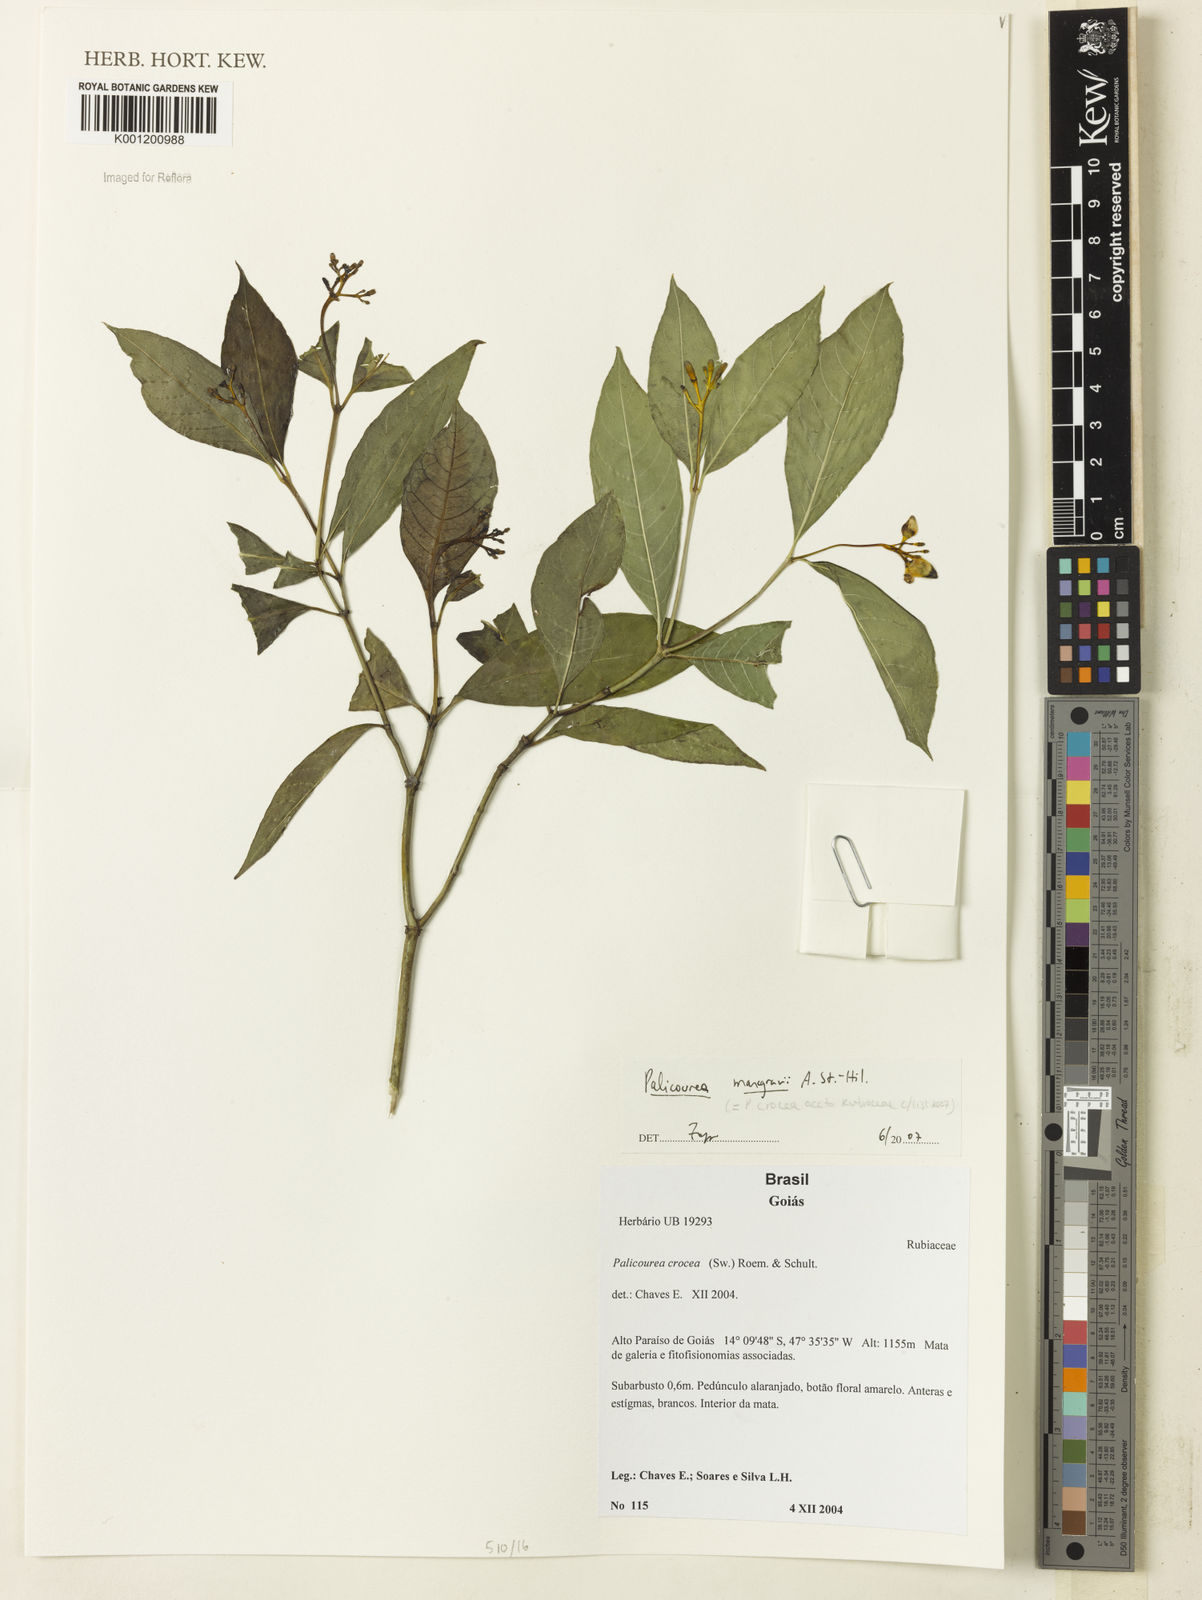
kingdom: Plantae
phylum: Tracheophyta
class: Magnoliopsida
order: Gentianales
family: Rubiaceae
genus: Palicourea
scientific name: Palicourea marcgravii
